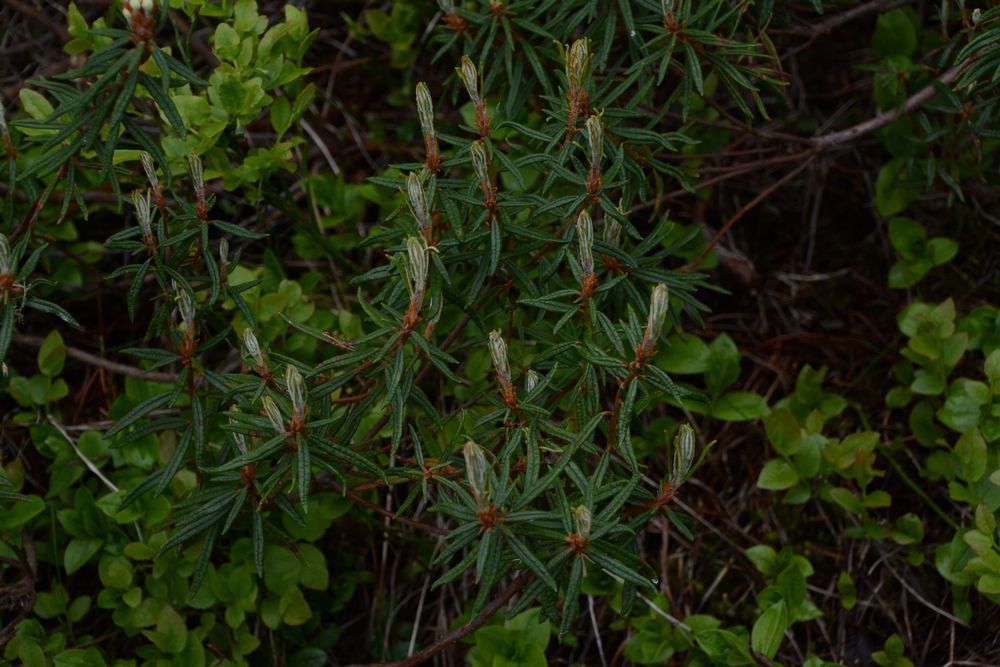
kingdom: Plantae
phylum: Tracheophyta
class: Magnoliopsida
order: Ericales
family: Ericaceae
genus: Rhododendron
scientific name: Rhododendron tomentosum
